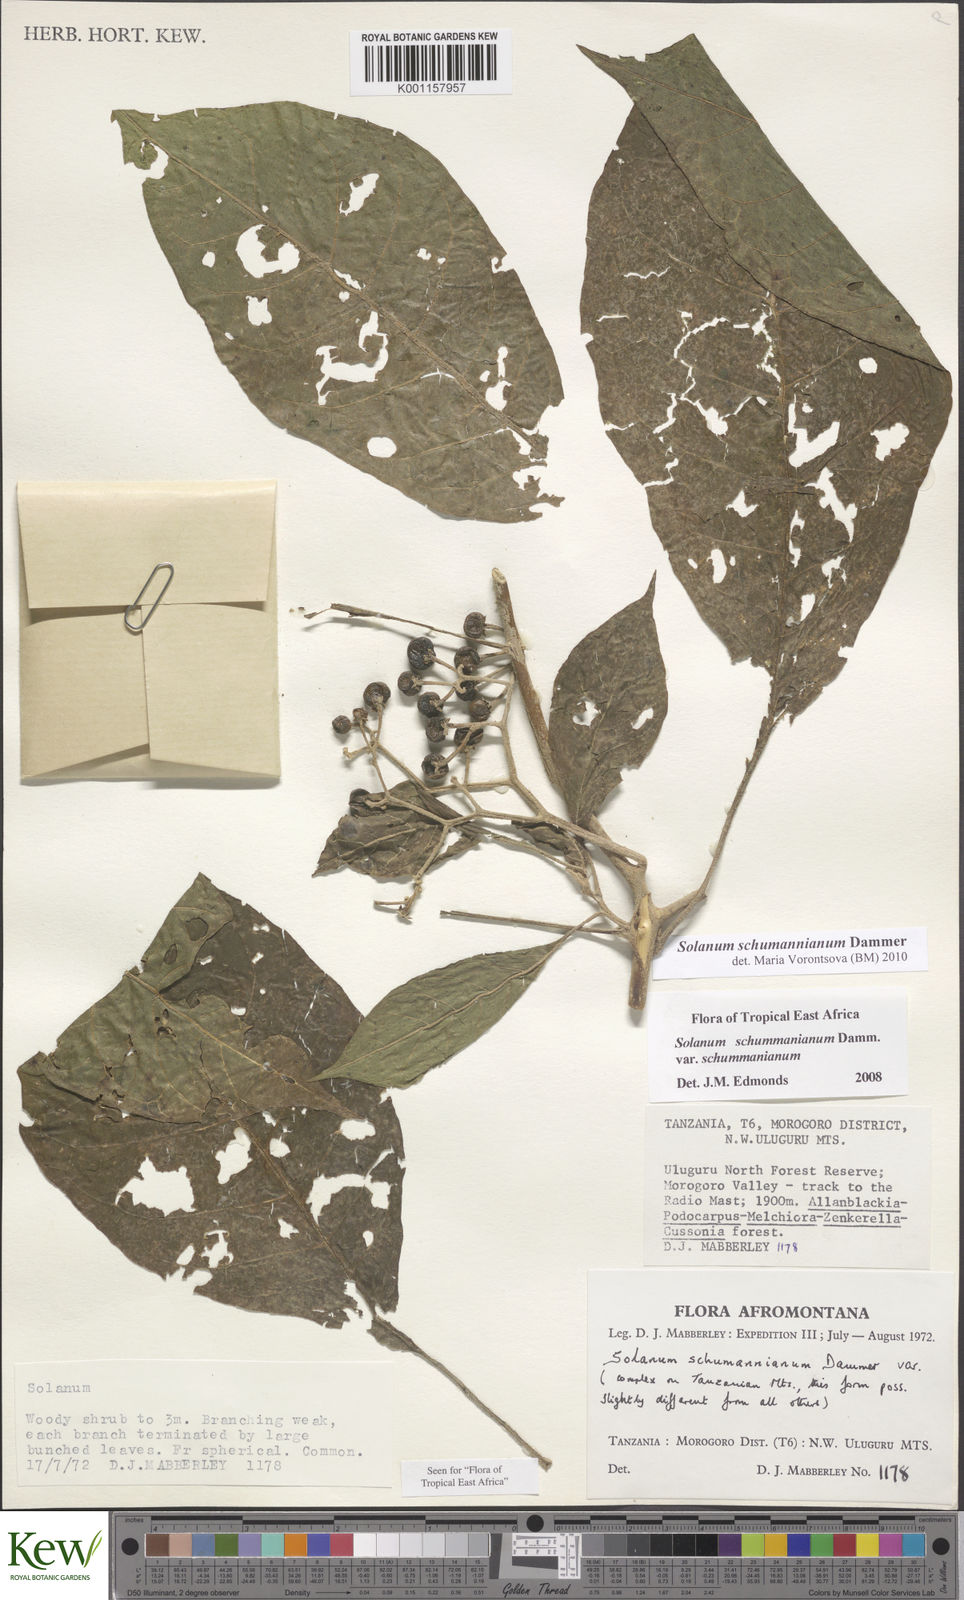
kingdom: Plantae
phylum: Tracheophyta
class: Magnoliopsida
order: Solanales
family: Solanaceae
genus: Solanum
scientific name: Solanum schumannianum
